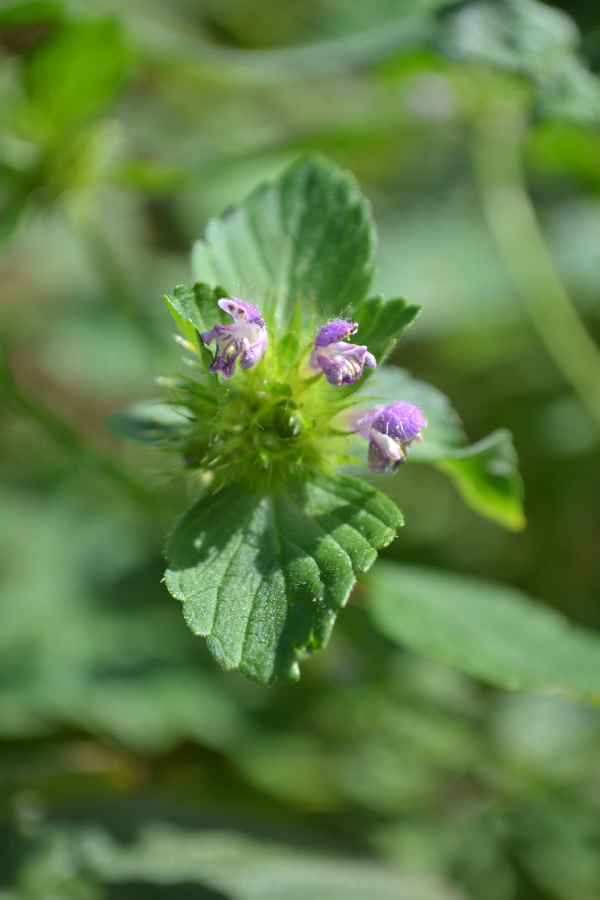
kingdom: Plantae
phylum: Tracheophyta
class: Magnoliopsida
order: Lamiales
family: Lamiaceae
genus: Galeopsis
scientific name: Galeopsis bifida
